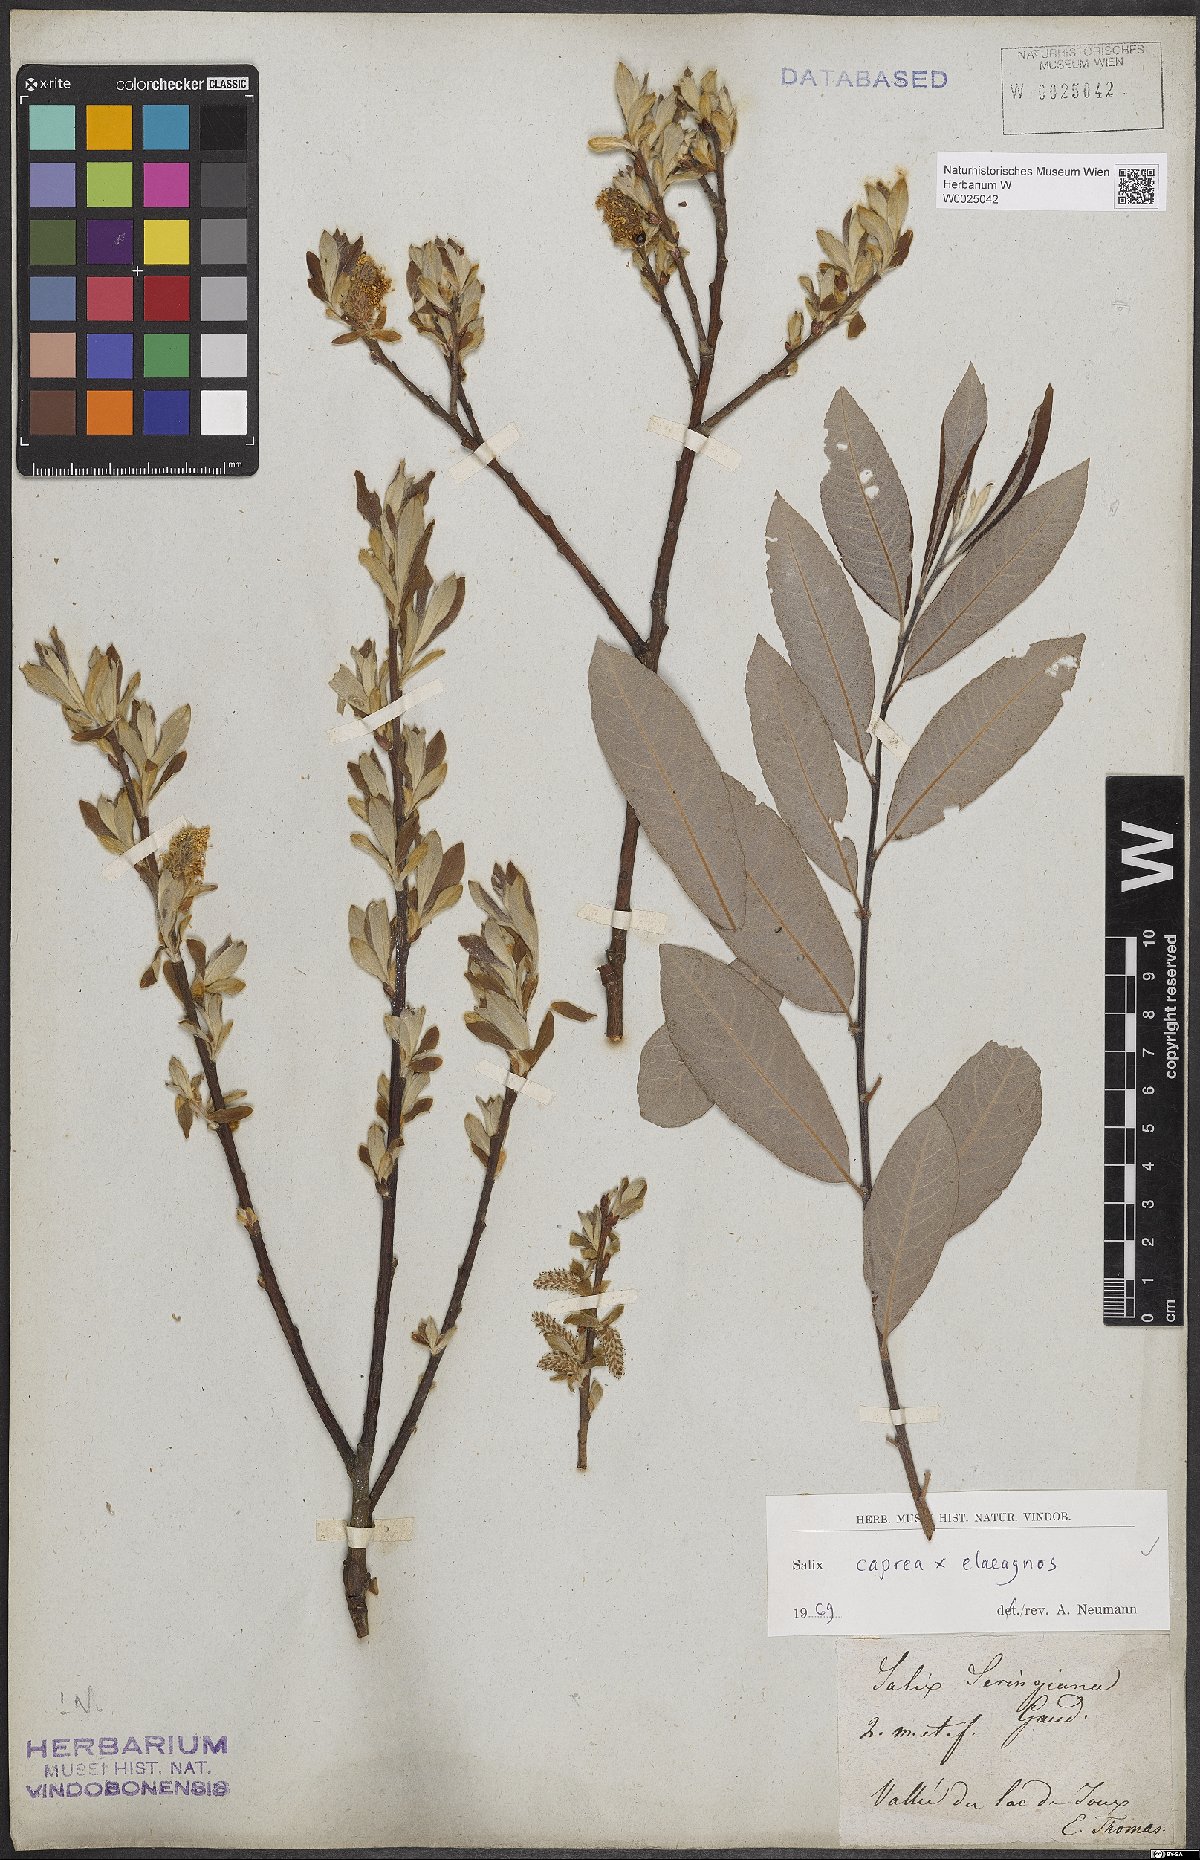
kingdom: Plantae
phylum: Tracheophyta
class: Magnoliopsida
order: Malpighiales
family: Salicaceae
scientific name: Salicaceae
